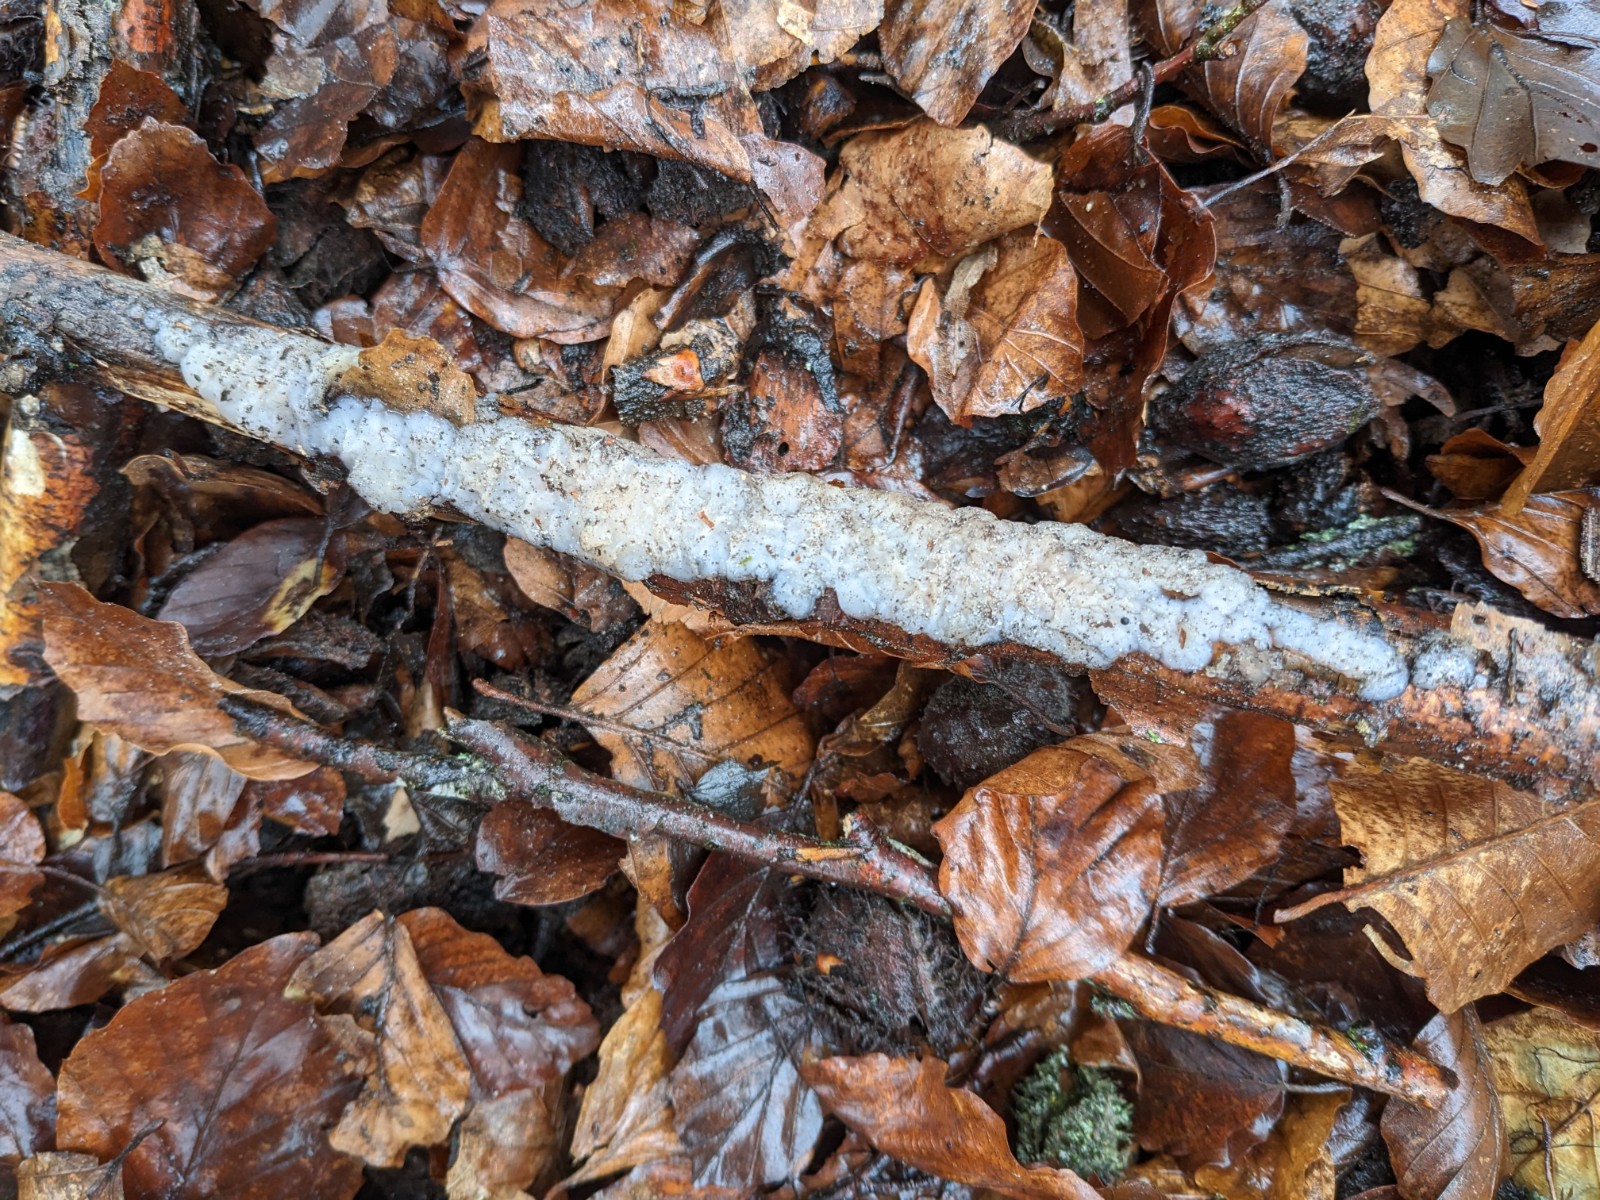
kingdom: Fungi
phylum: Basidiomycota
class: Agaricomycetes
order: Auriculariales
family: Auriculariaceae
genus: Exidia
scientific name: Exidia thuretiana
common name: hvidlig bævretop
